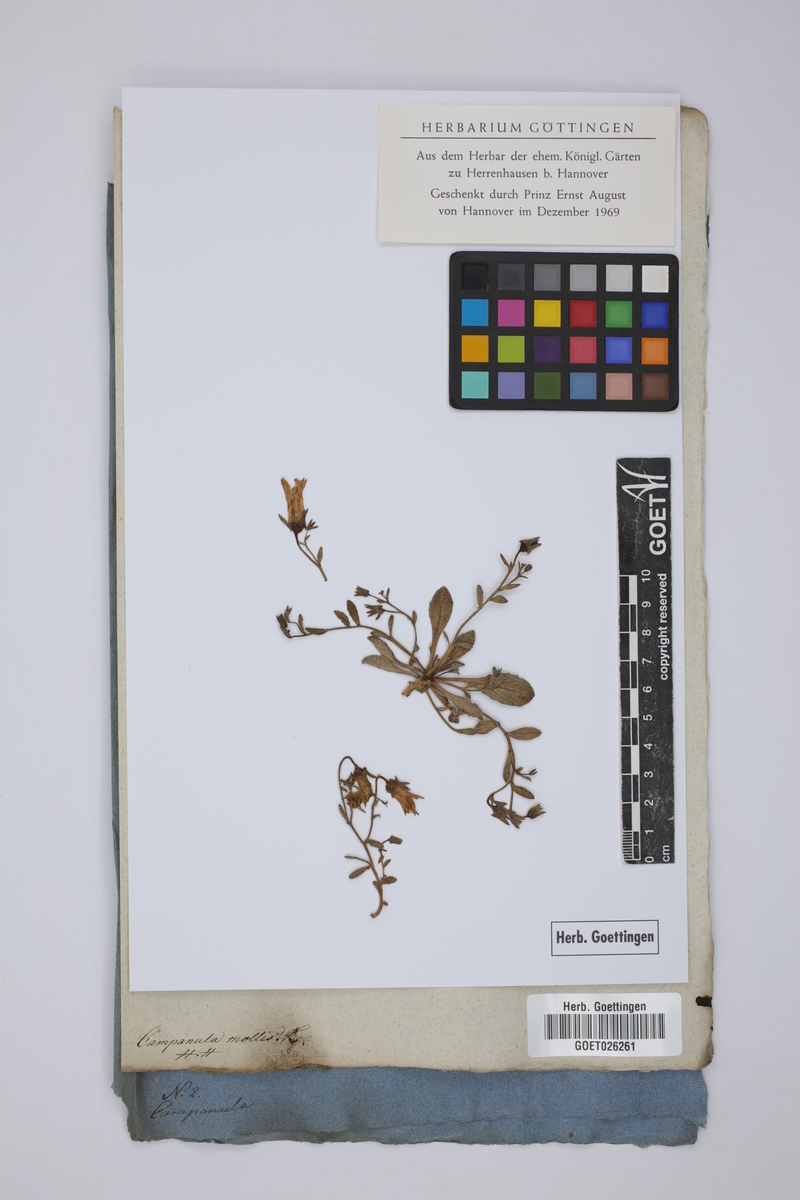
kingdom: Plantae
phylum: Tracheophyta
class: Magnoliopsida
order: Asterales
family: Campanulaceae
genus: Campanula
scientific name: Campanula mollis
